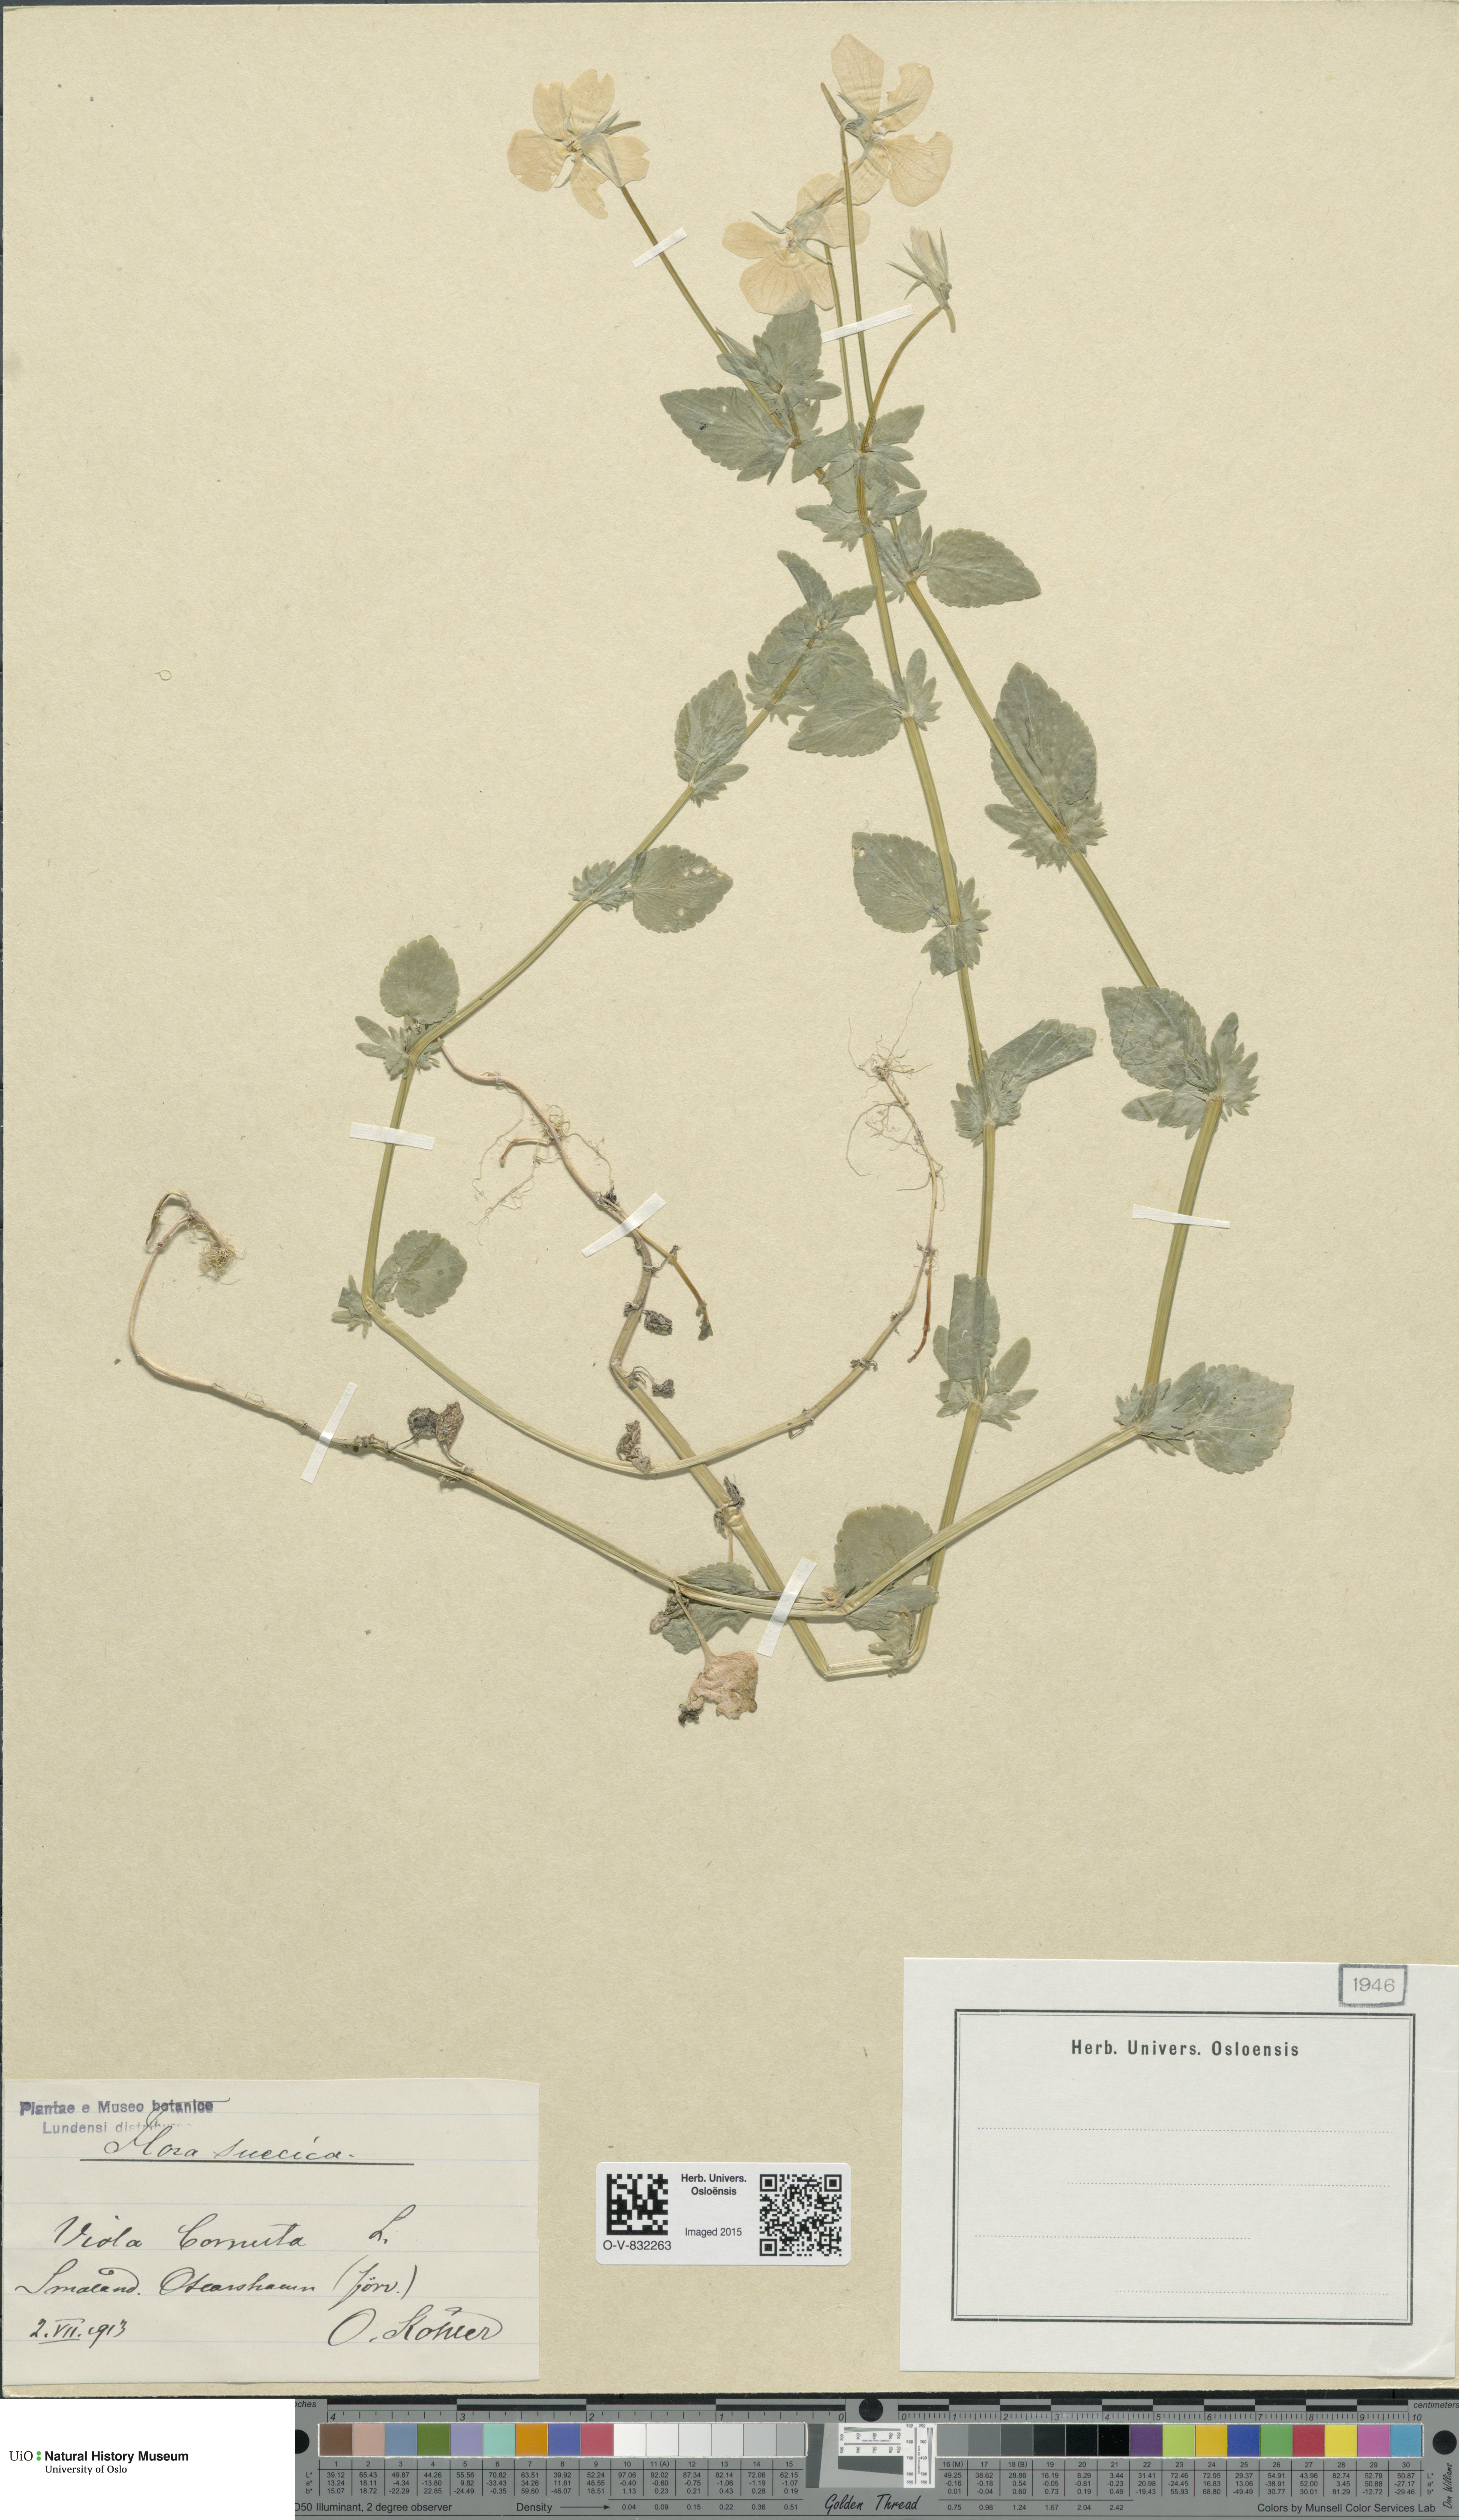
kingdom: Plantae
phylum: Tracheophyta
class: Magnoliopsida
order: Malpighiales
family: Violaceae
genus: Viola
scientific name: Viola cornuta
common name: Horned pansy
